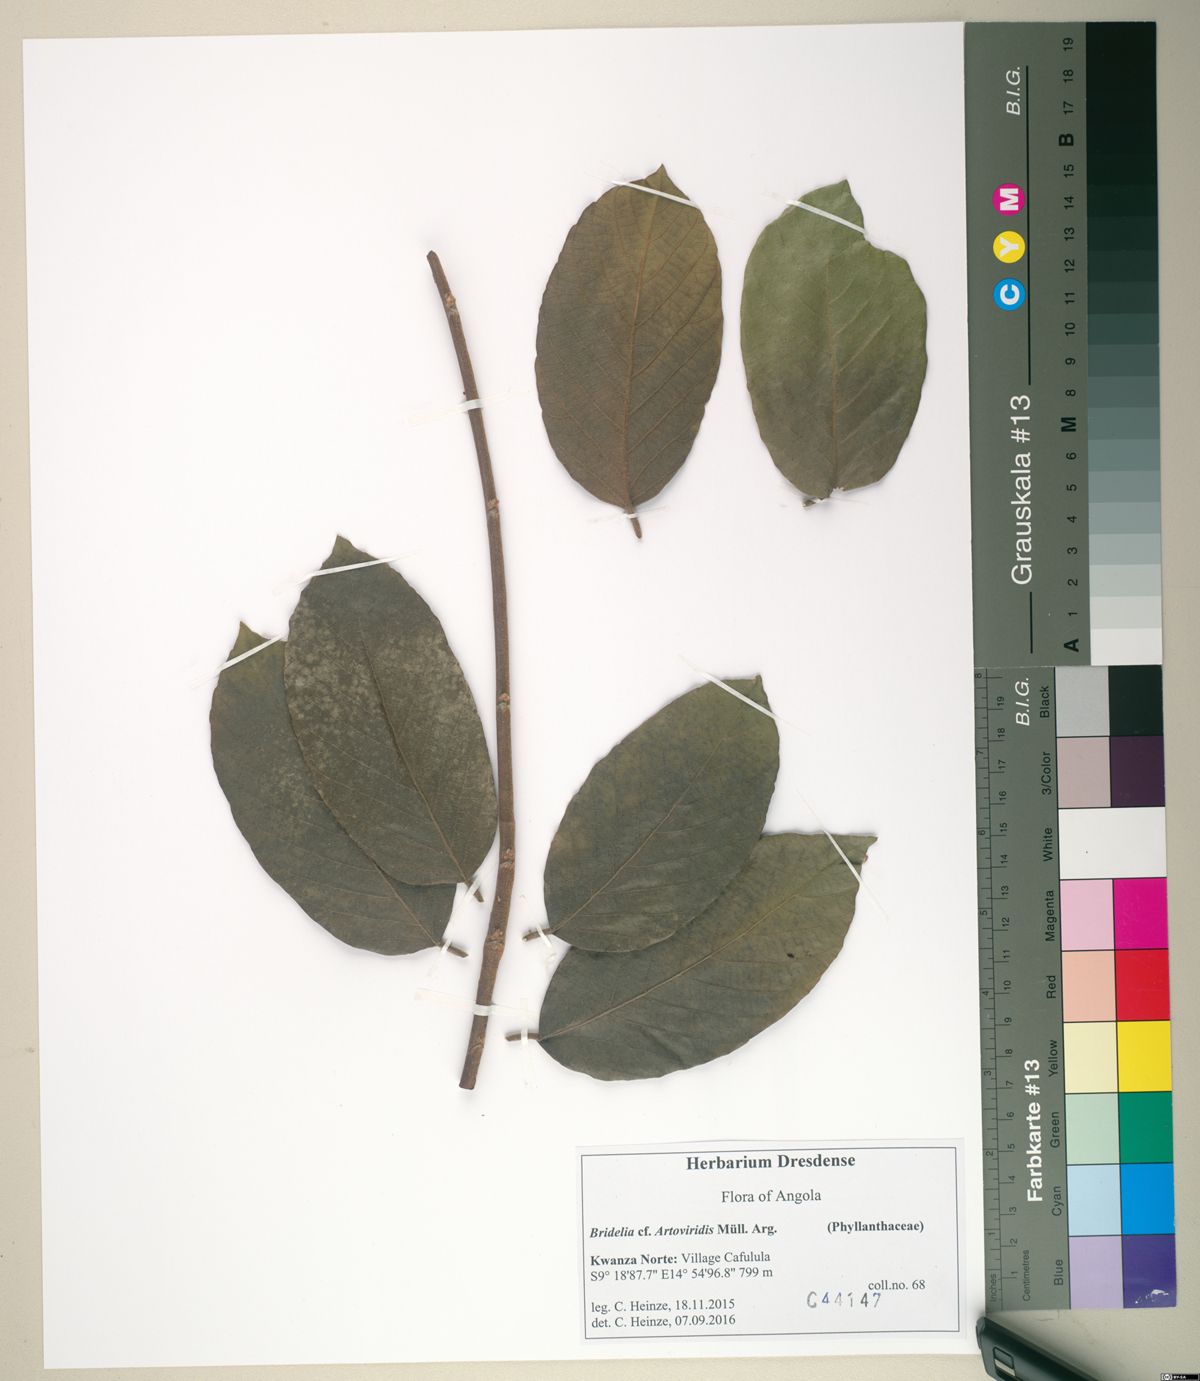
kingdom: Plantae
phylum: Tracheophyta
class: Magnoliopsida
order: Malpighiales
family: Phyllanthaceae
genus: Bridelia
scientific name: Bridelia atroviridis
